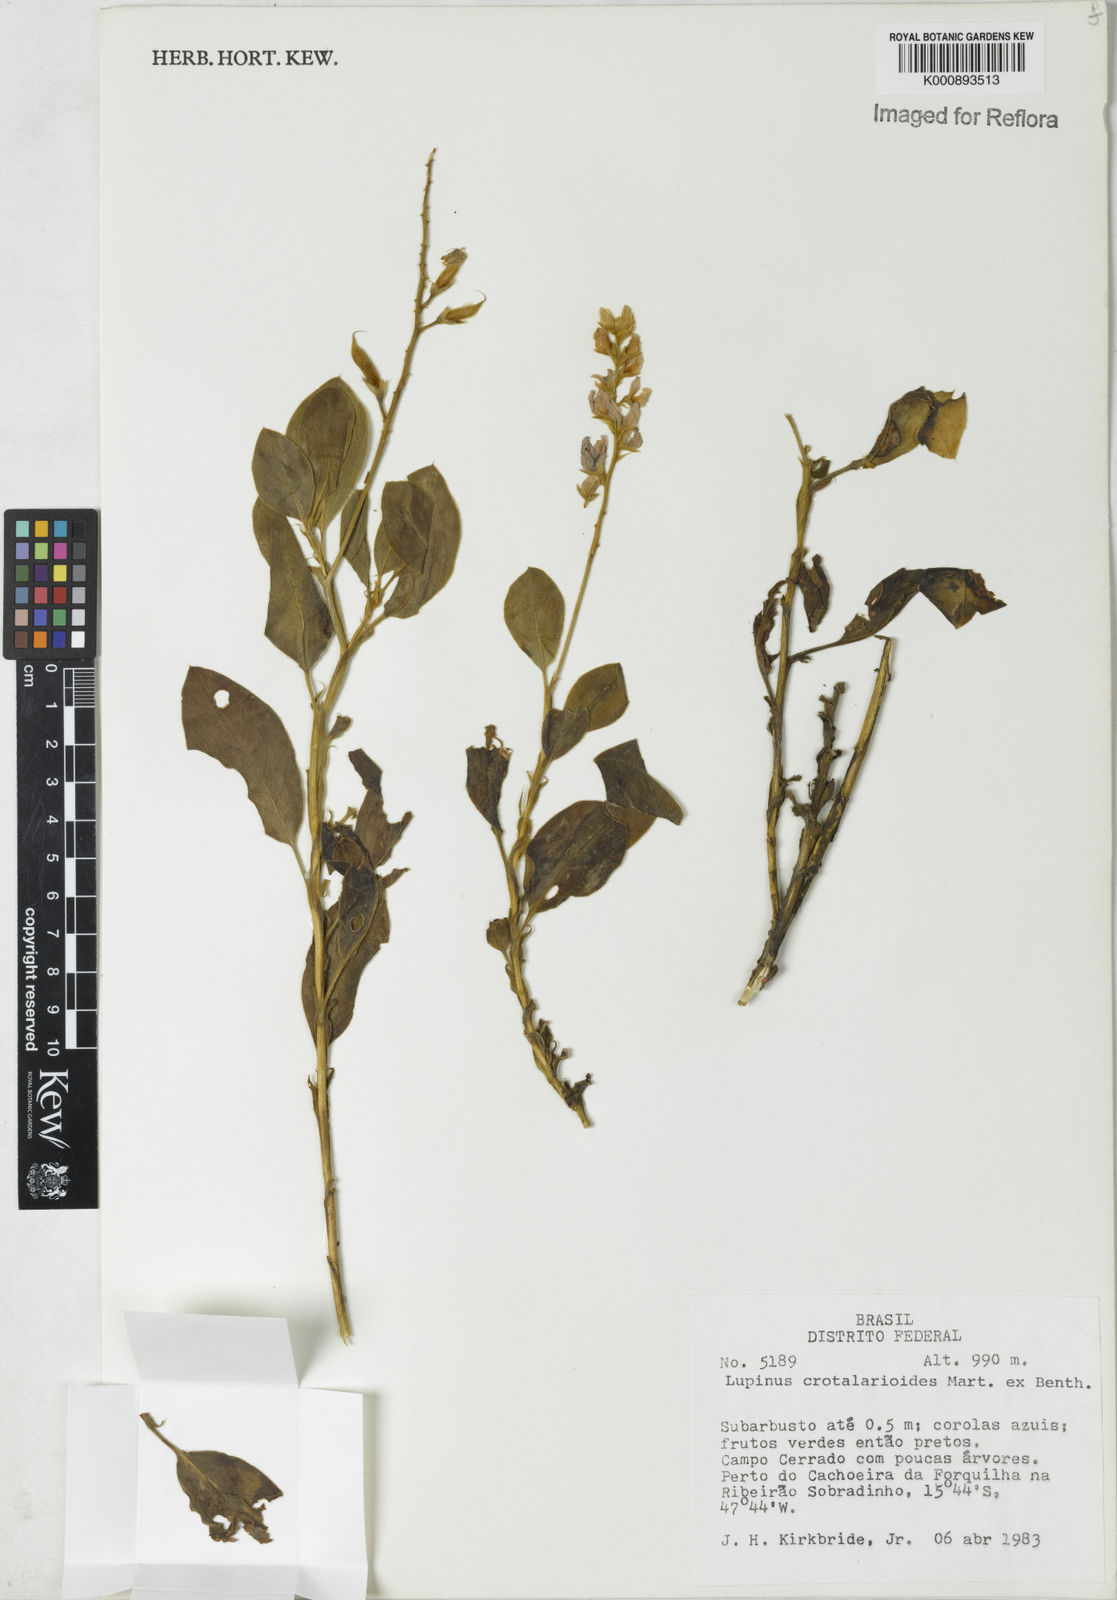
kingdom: Plantae
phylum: Tracheophyta
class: Magnoliopsida
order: Fabales
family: Fabaceae
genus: Lupinus
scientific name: Lupinus crotalarioides
